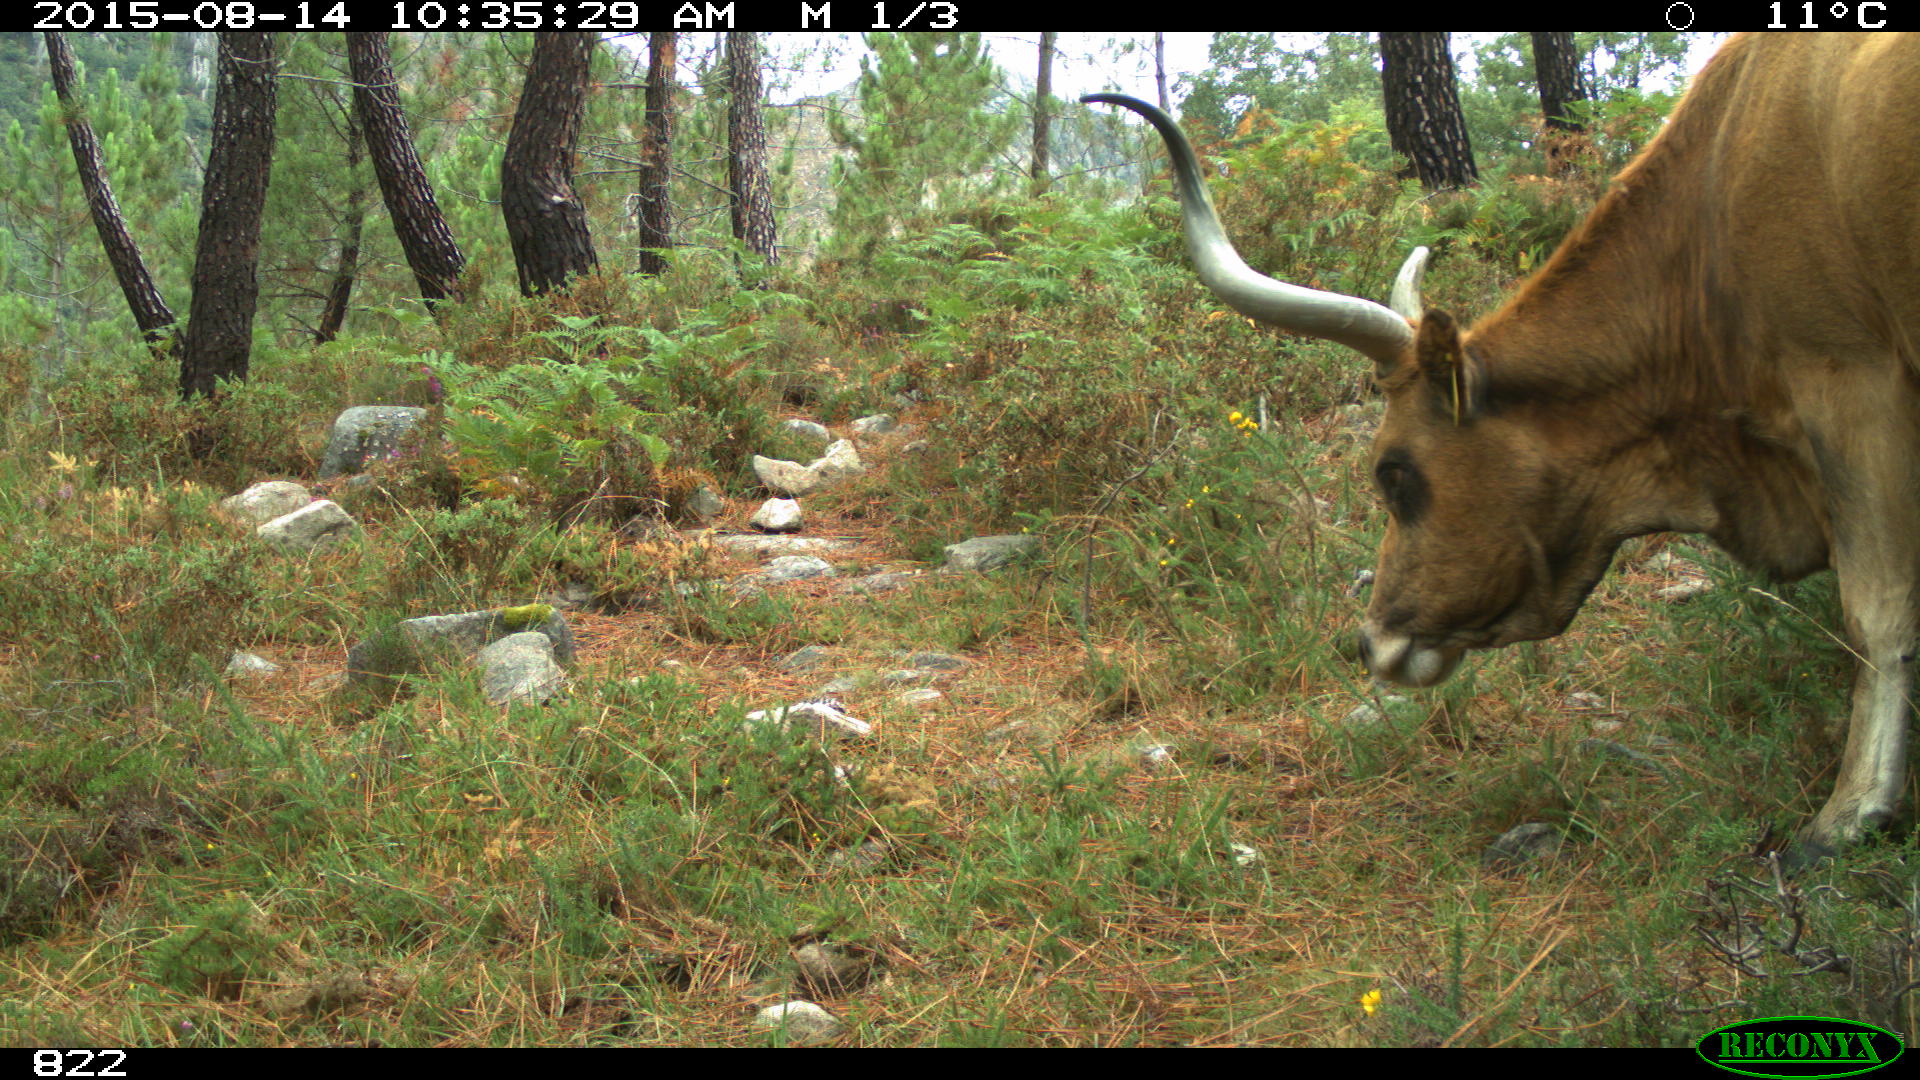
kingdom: Animalia
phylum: Chordata
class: Mammalia
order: Artiodactyla
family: Bovidae
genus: Bos
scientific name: Bos taurus
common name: Domesticated cattle
